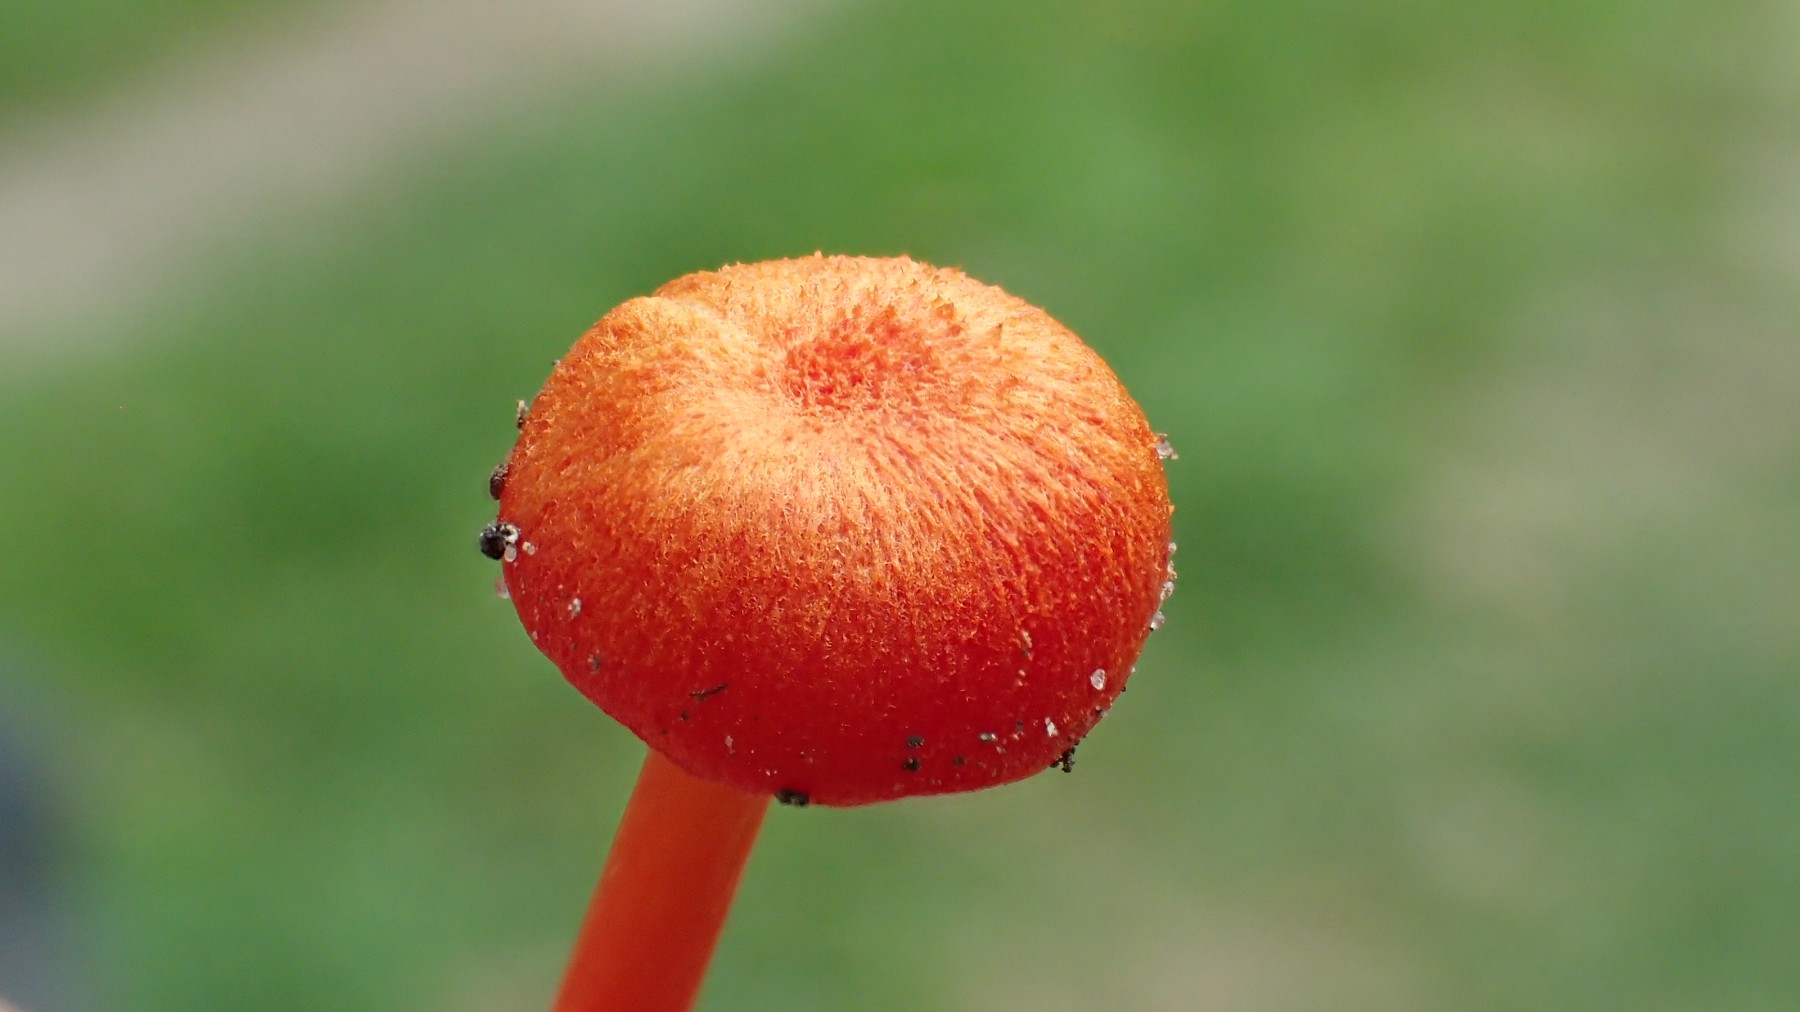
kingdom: Fungi
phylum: Basidiomycota
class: Agaricomycetes
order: Agaricales
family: Hygrophoraceae
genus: Hygrocybe
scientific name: Hygrocybe miniata
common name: mønje-vokshat
